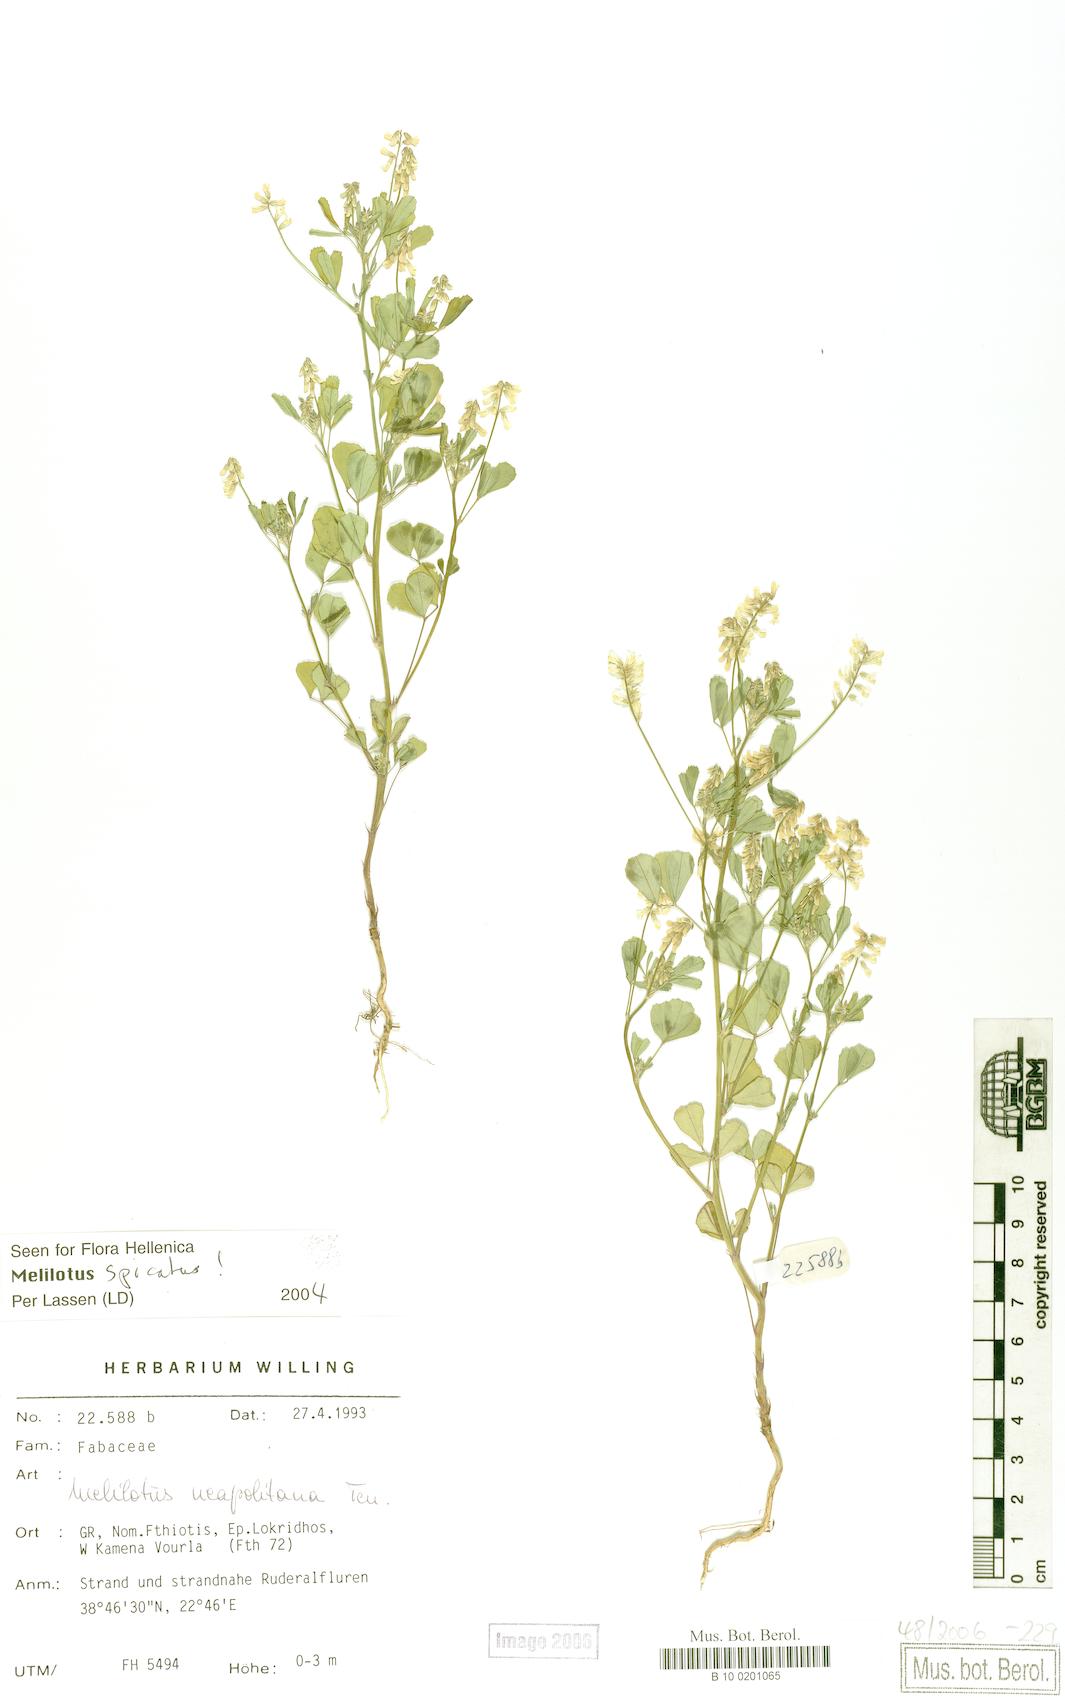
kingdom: Plantae
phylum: Tracheophyta
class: Magnoliopsida
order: Fabales
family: Fabaceae
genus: Melilotus
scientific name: Melilotus neapolitanus
